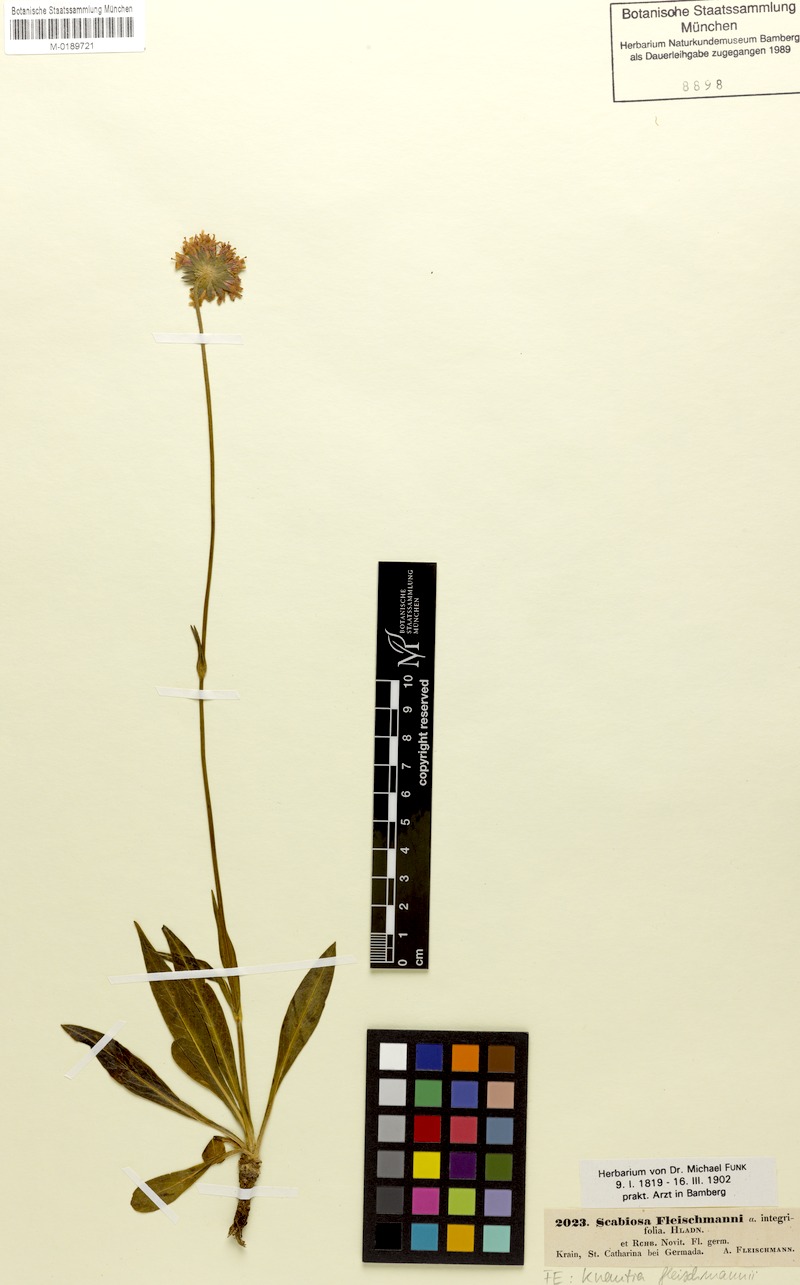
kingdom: Plantae
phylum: Tracheophyta
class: Magnoliopsida
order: Dipsacales
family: Caprifoliaceae
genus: Knautia
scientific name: Knautia fleischmannii
